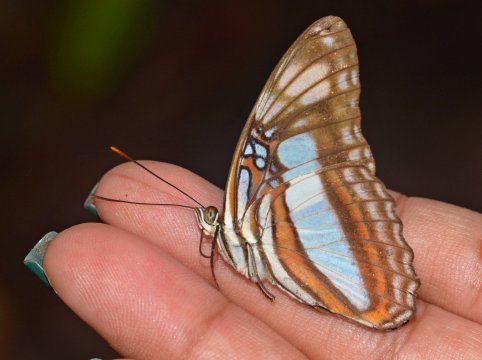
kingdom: Animalia
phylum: Arthropoda
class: Insecta
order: Lepidoptera
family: Nymphalidae
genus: Limenitis
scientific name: Limenitis paraena
